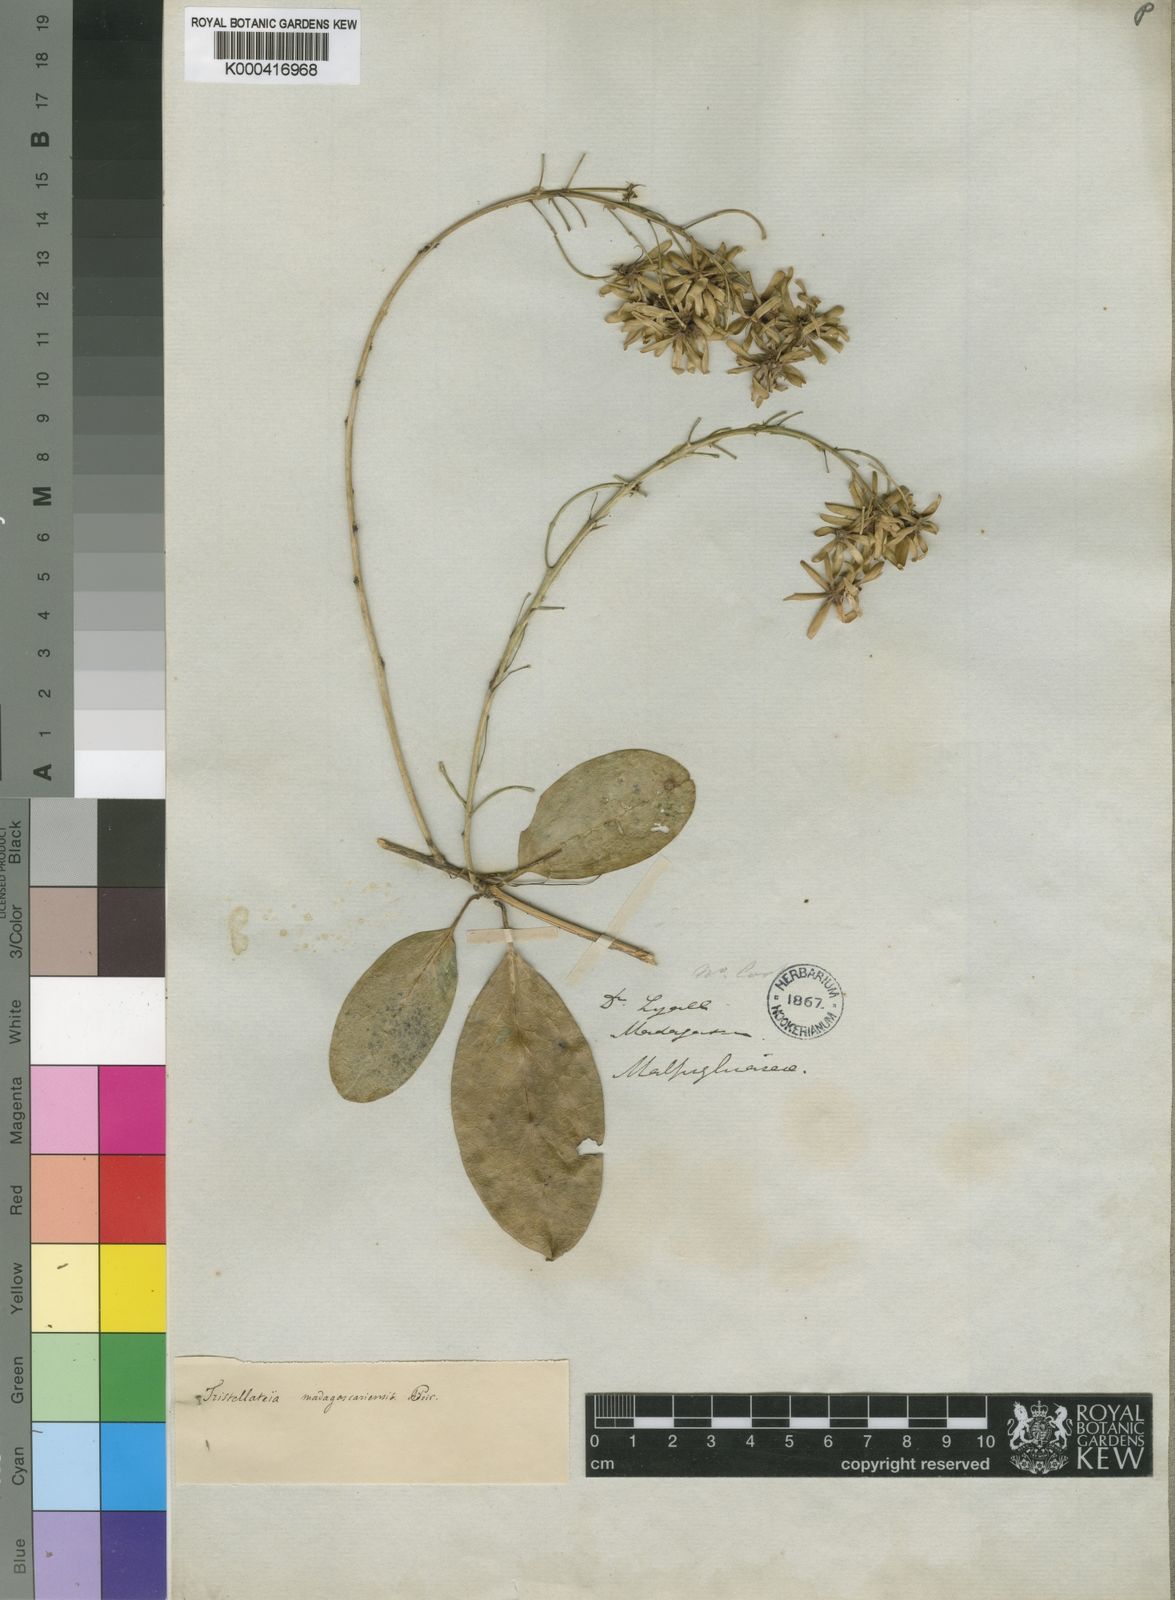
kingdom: Plantae
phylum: Tracheophyta
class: Magnoliopsida
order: Malpighiales
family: Malpighiaceae
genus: Tristellateia
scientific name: Tristellateia madagascariensis
